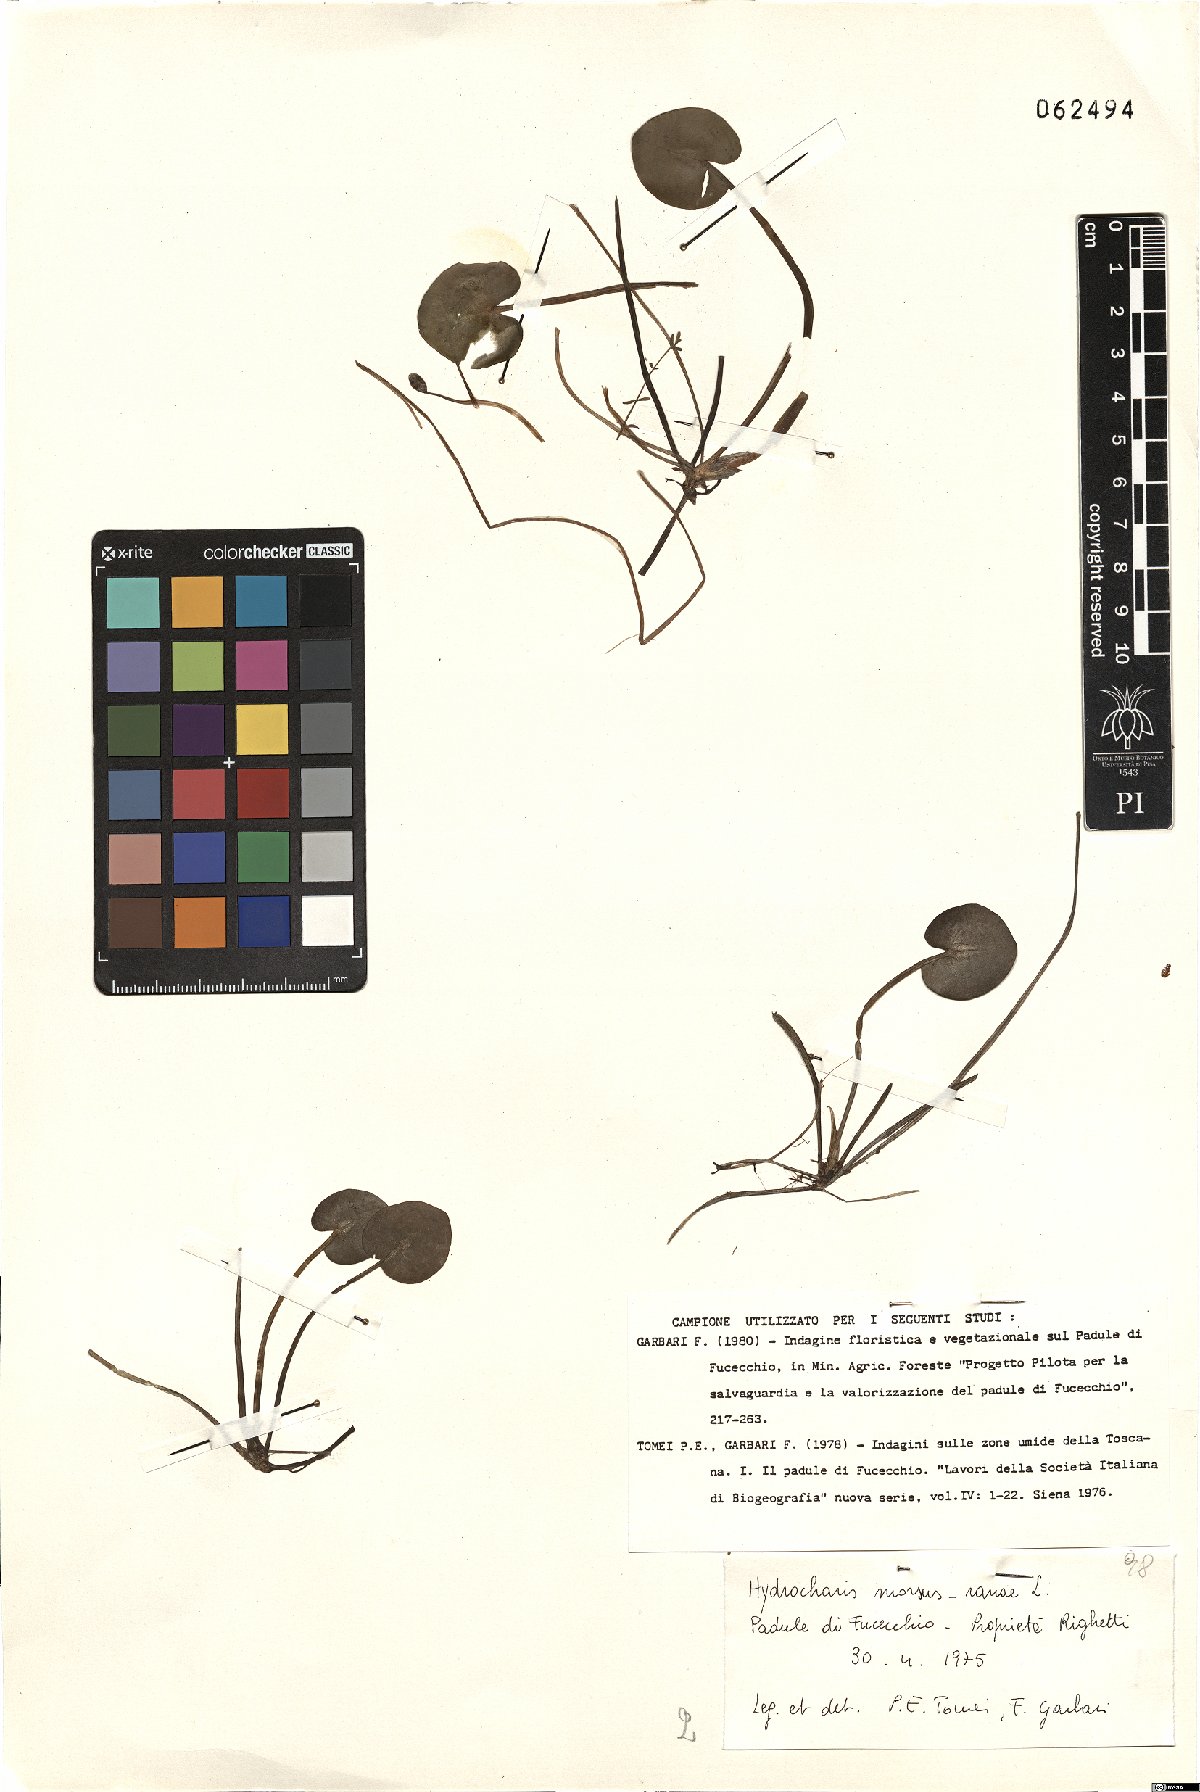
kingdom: Plantae
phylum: Tracheophyta
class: Liliopsida
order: Alismatales
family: Hydrocharitaceae
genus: Hydrocharis
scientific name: Hydrocharis morsus-ranae
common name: Frogbit
